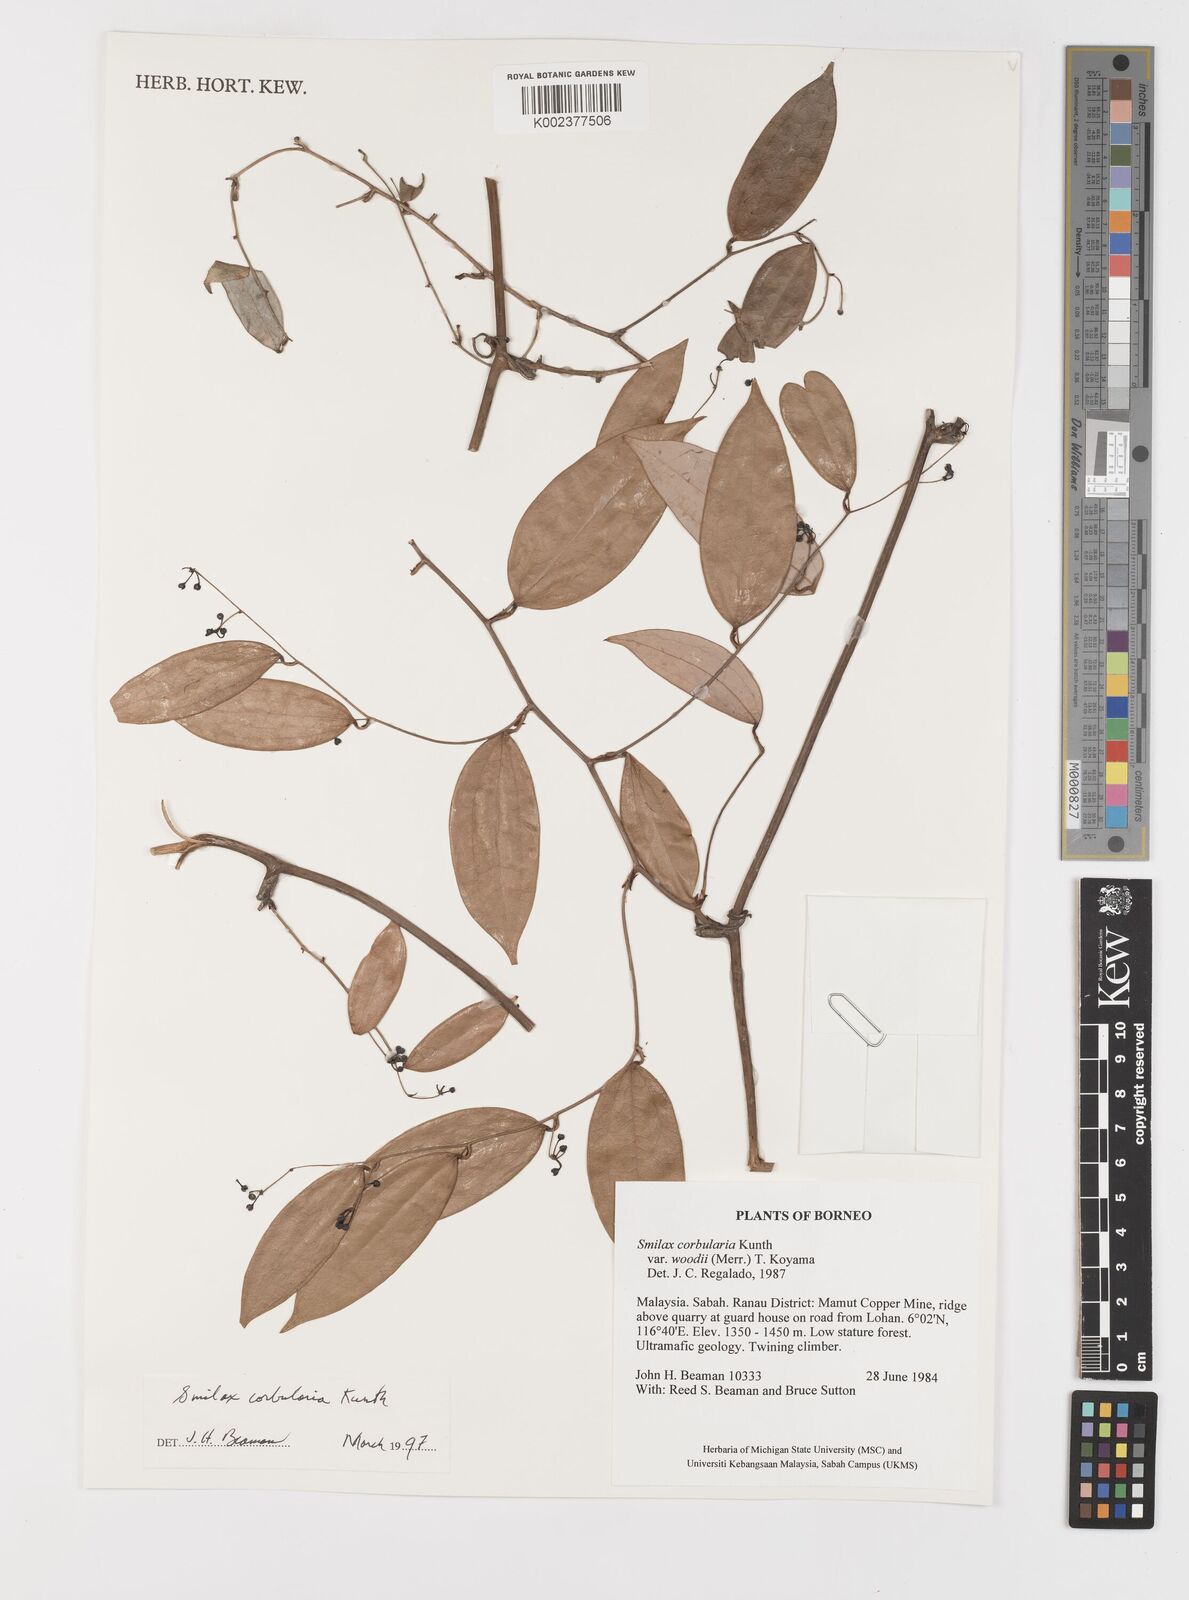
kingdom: Plantae
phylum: Tracheophyta
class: Liliopsida
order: Liliales
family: Smilacaceae
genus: Smilax
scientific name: Smilax corbularia
